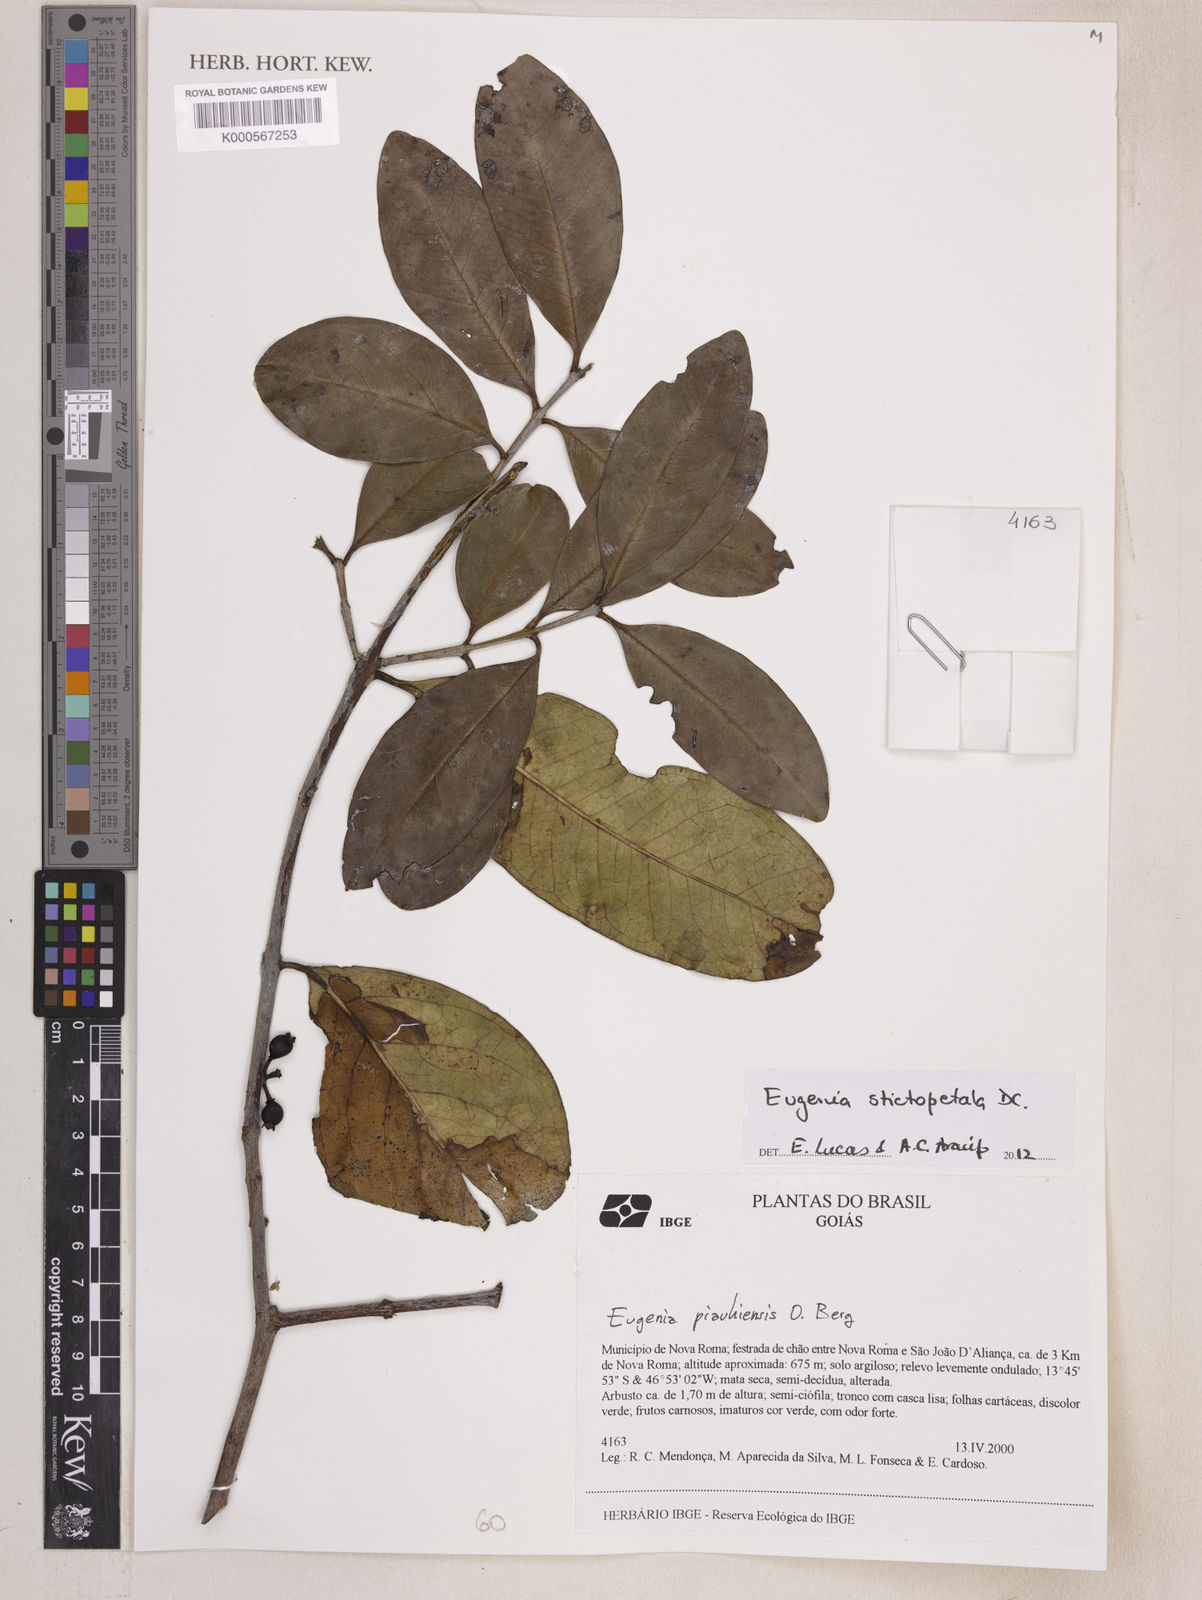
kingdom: Plantae
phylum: Tracheophyta
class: Magnoliopsida
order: Myrtales
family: Myrtaceae
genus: Eugenia
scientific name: Eugenia stictopetala
